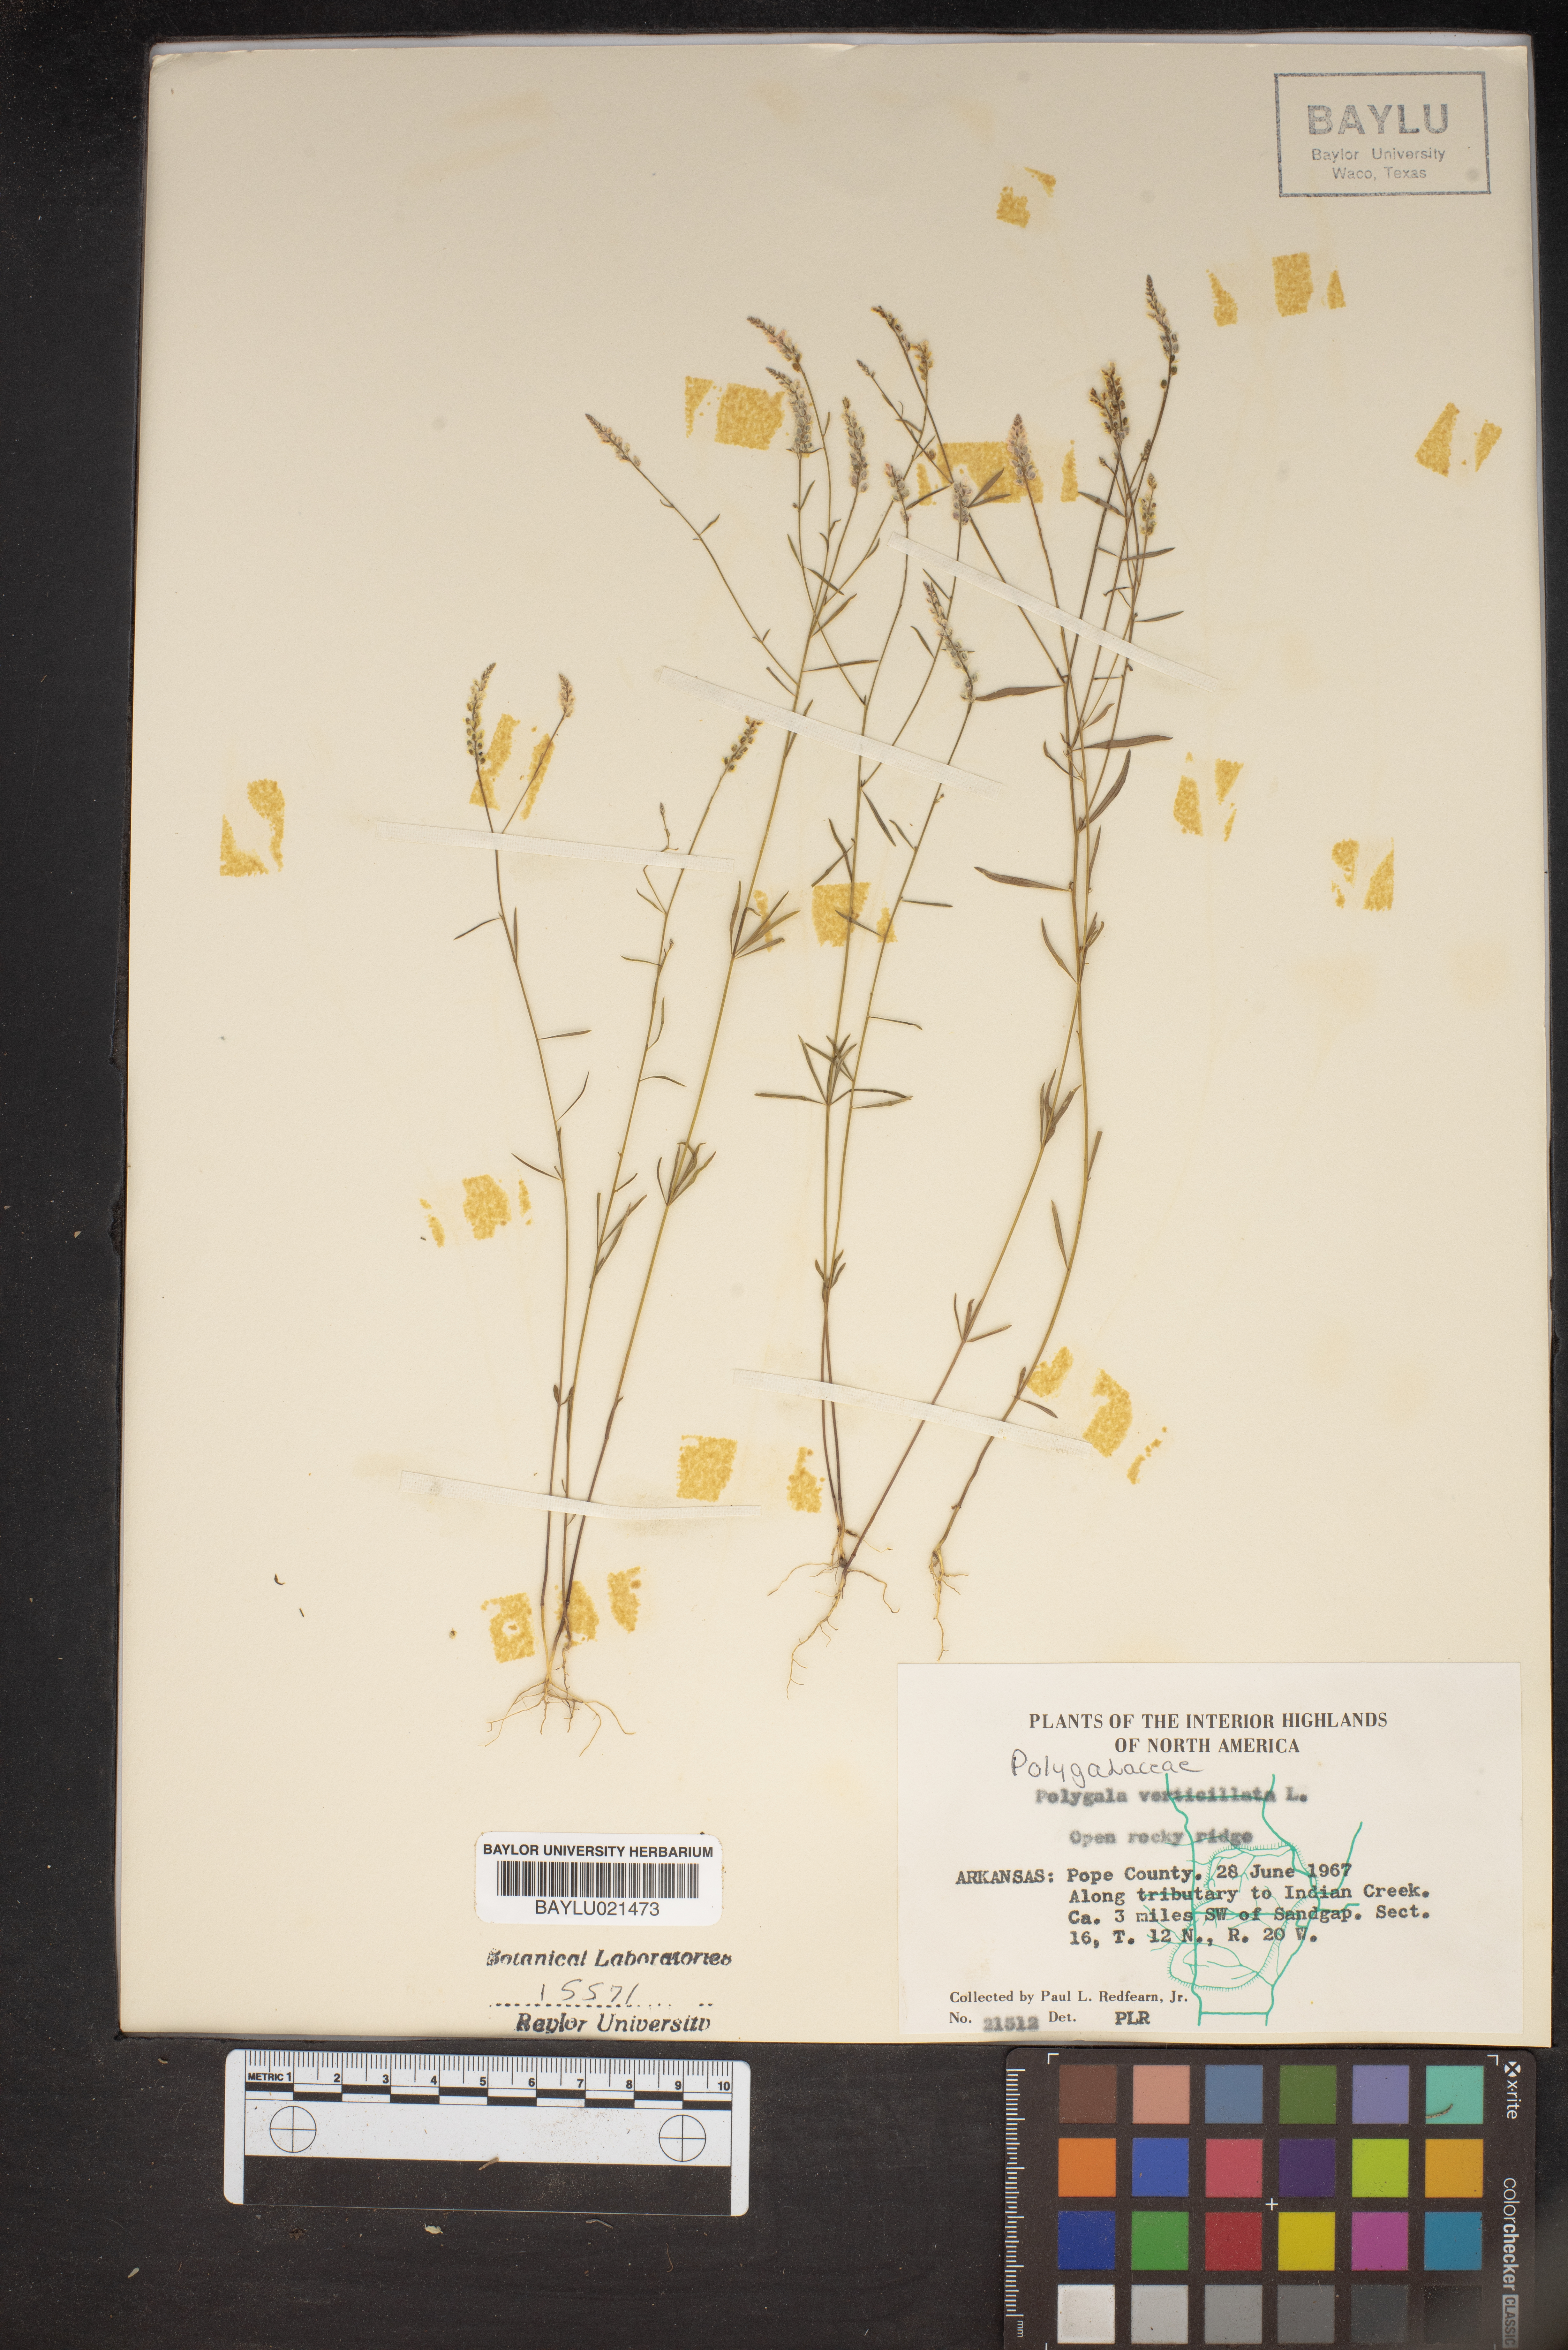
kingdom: Plantae
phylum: Tracheophyta
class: Magnoliopsida
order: Fabales
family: Polygalaceae
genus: Polygala
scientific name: Polygala verticillata
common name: Whorl milkwort
